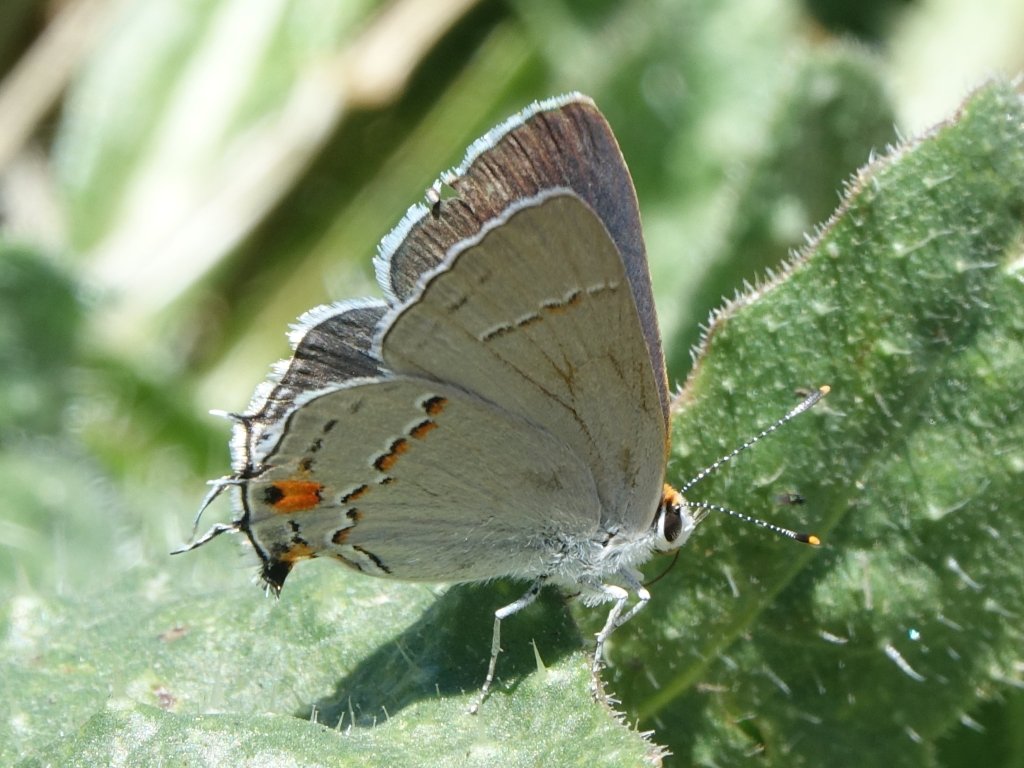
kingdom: Animalia
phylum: Arthropoda
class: Insecta
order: Lepidoptera
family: Lycaenidae
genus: Strymon
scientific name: Strymon melinus
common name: Gray Hairstreak
